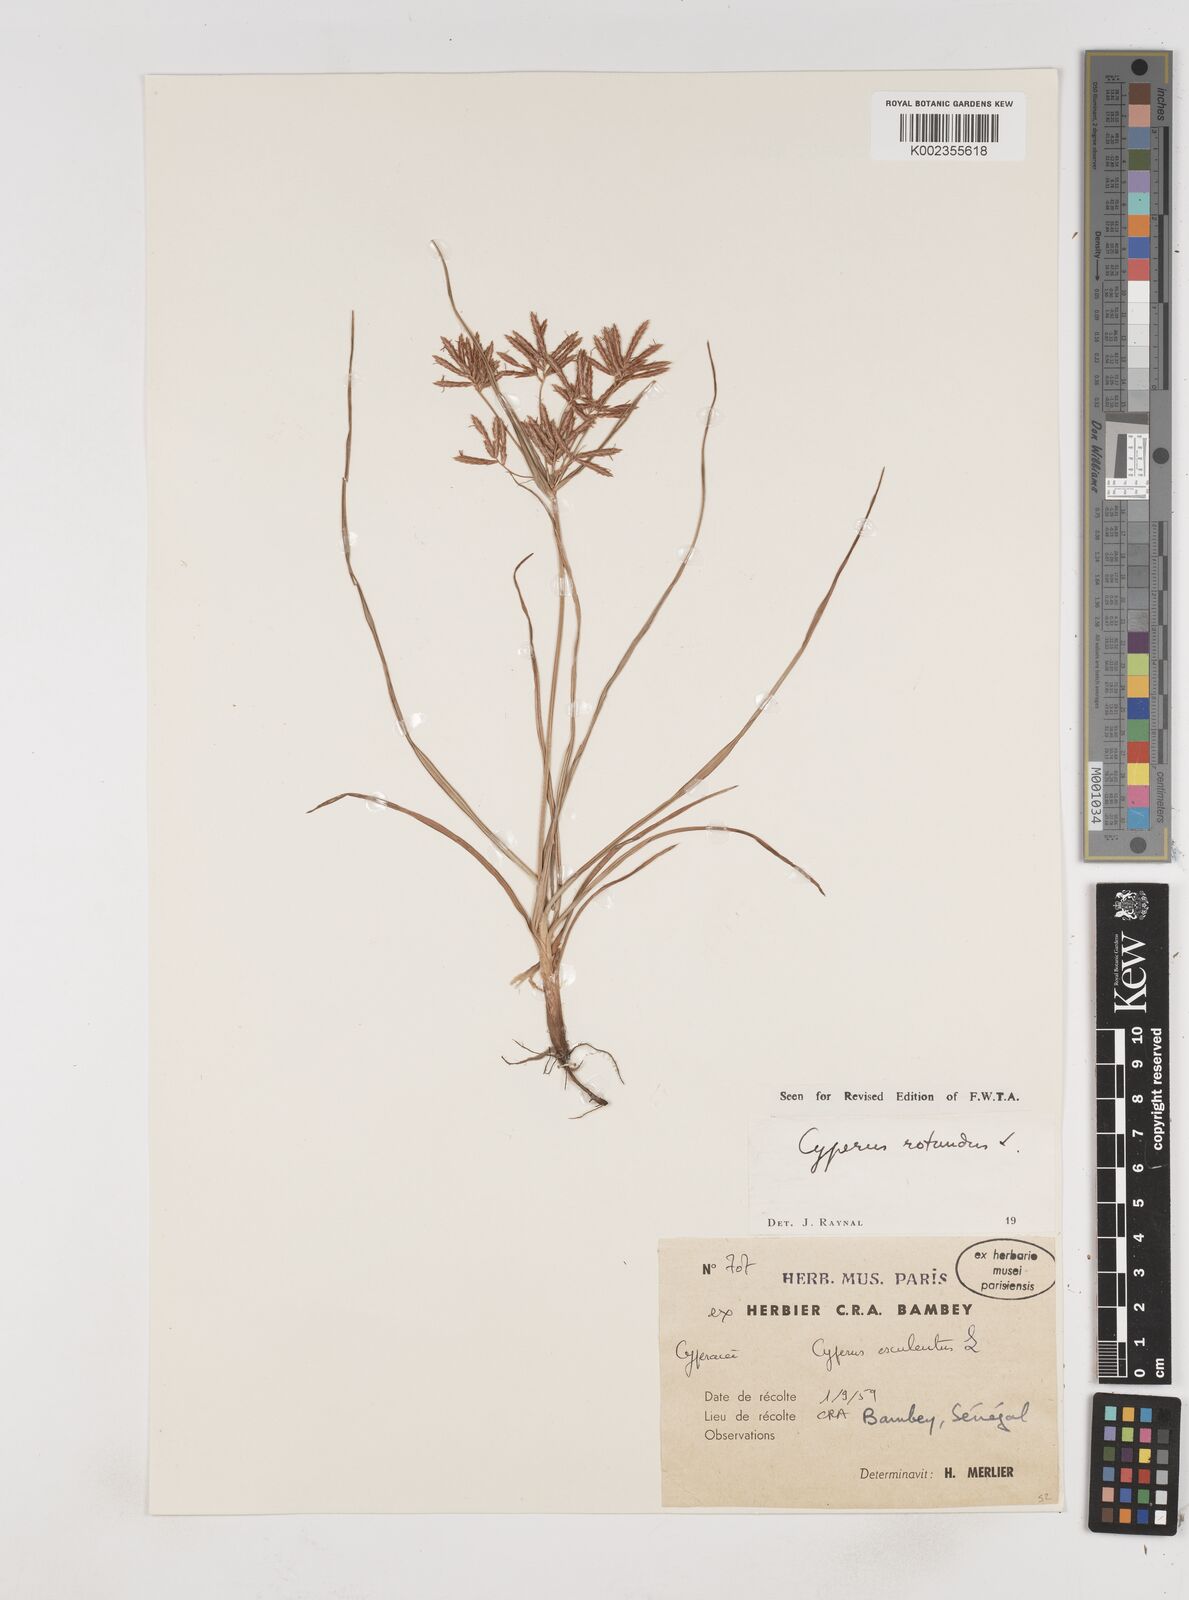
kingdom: Plantae
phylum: Tracheophyta
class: Liliopsida
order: Poales
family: Cyperaceae
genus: Cyperus
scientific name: Cyperus rotundus
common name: Nutgrass
